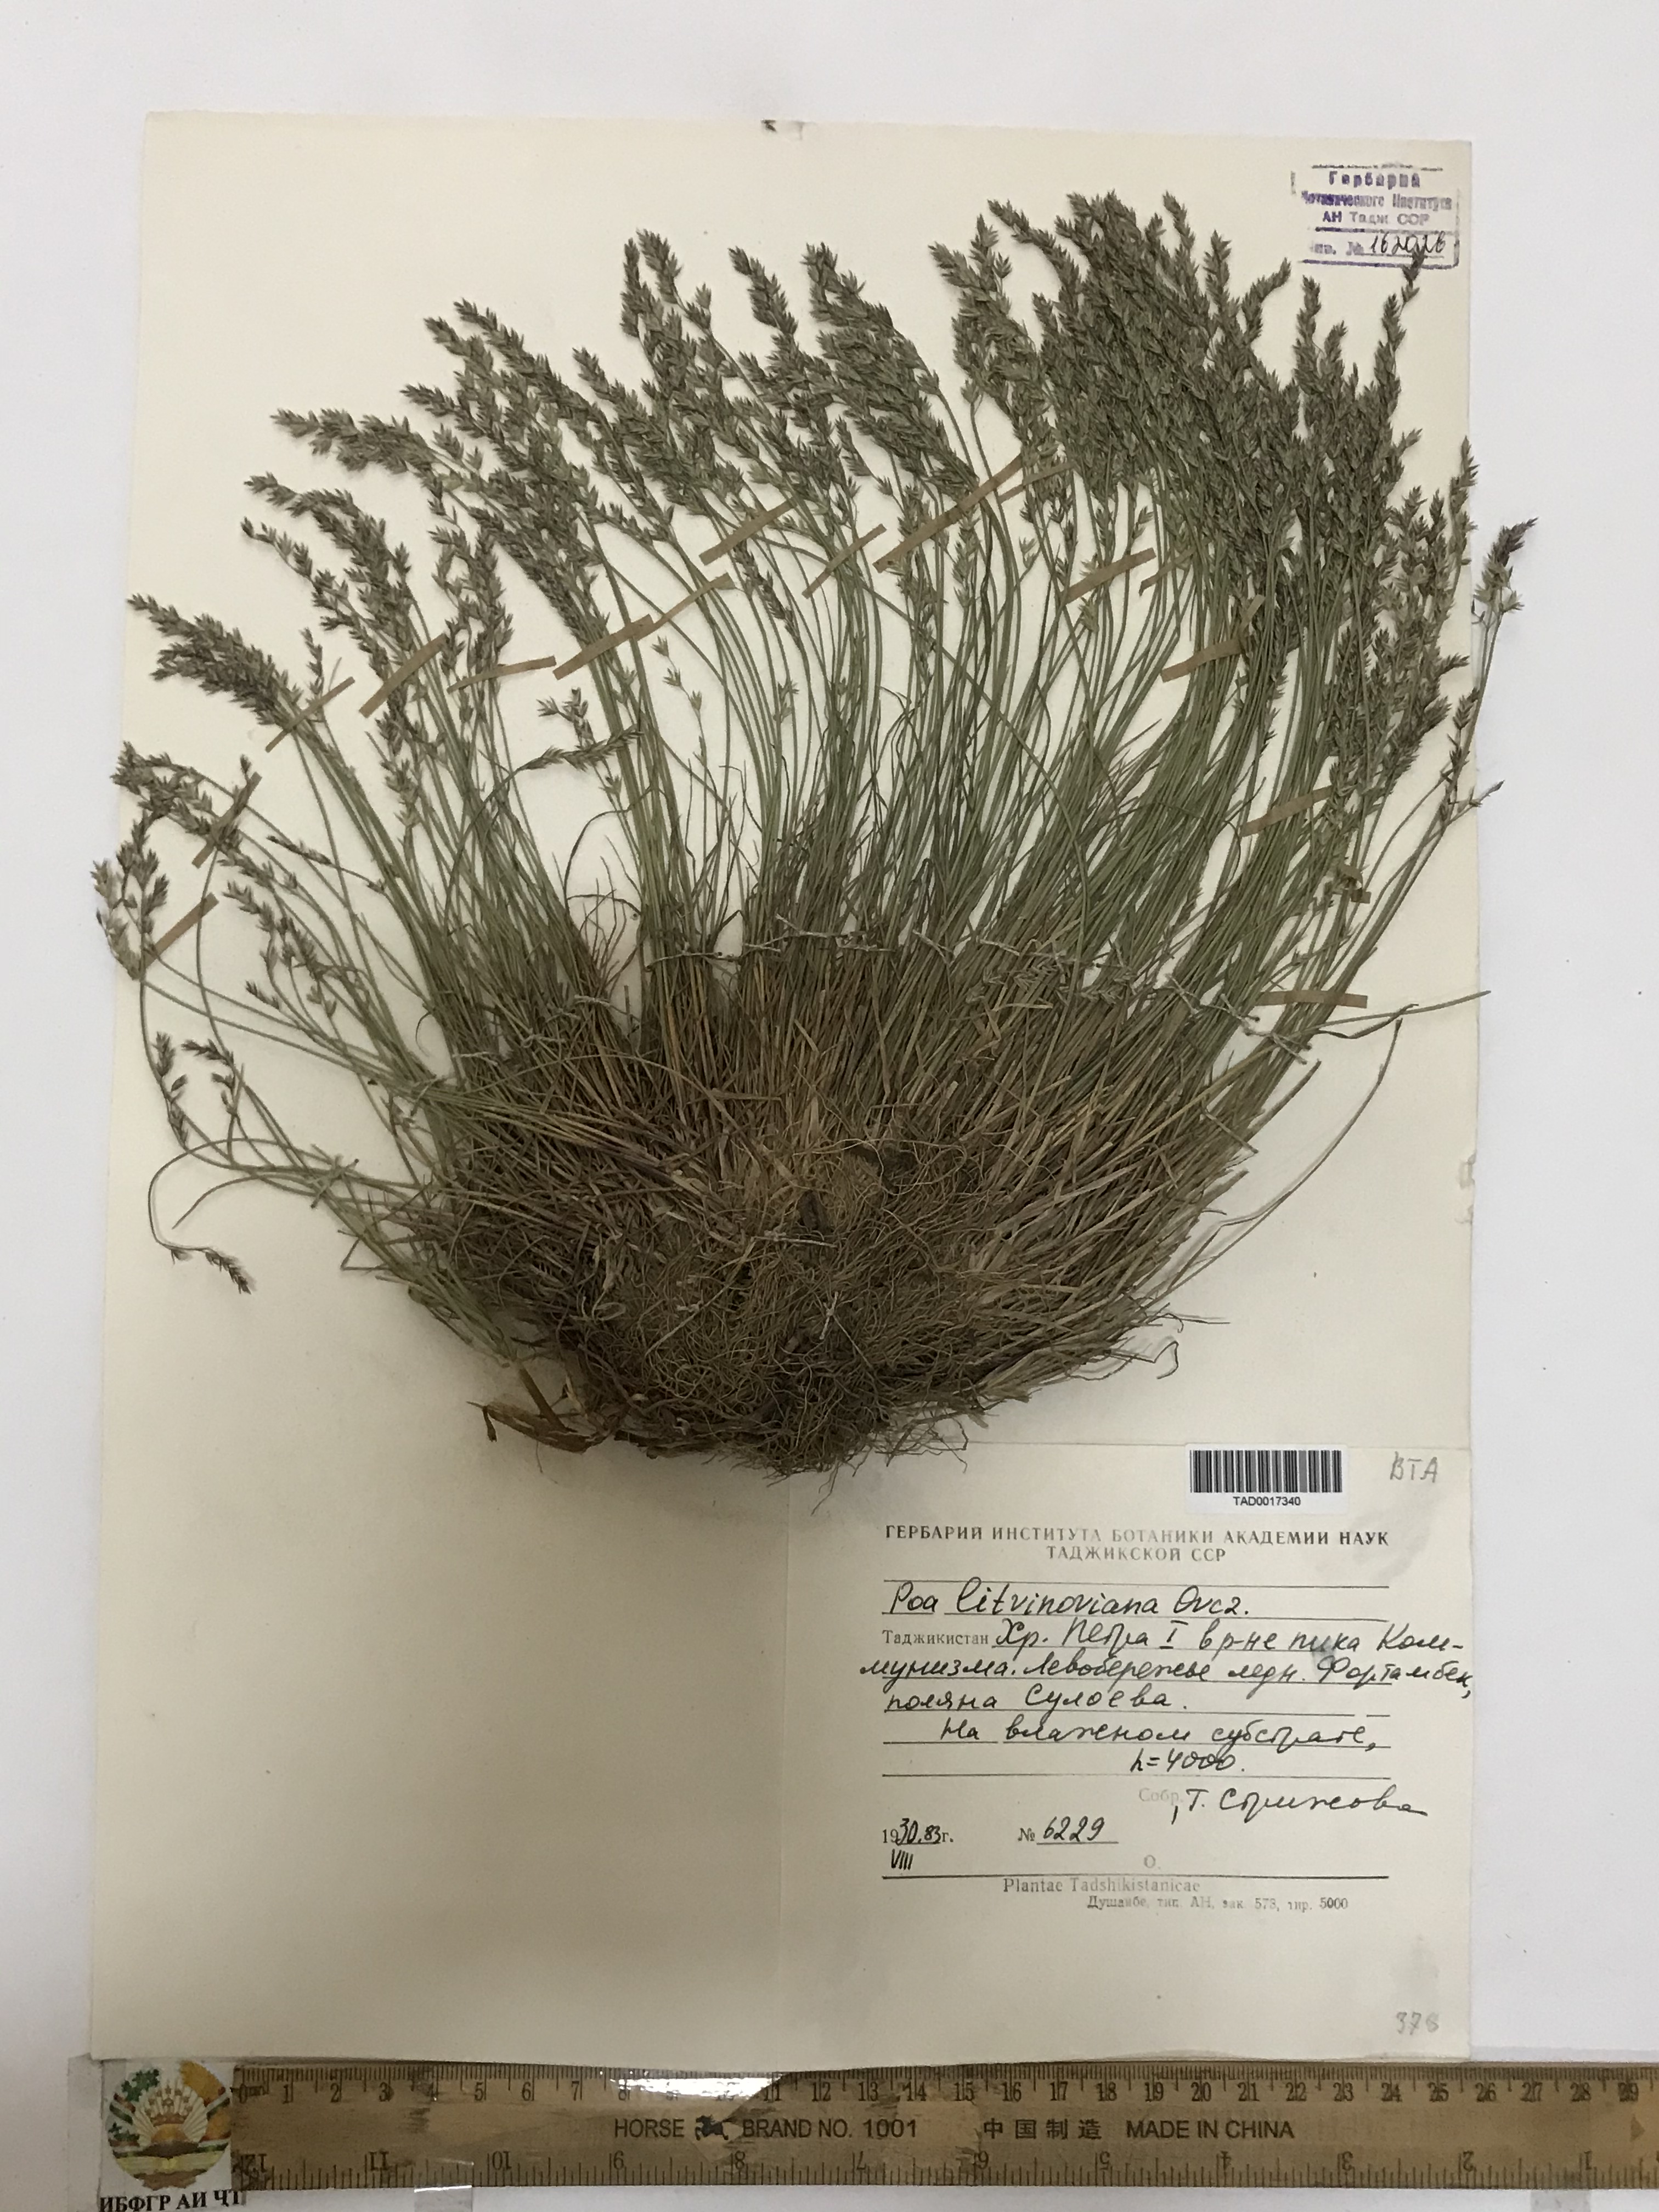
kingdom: Plantae
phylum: Tracheophyta
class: Liliopsida
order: Poales
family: Poaceae
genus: Poa
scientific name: Poa glauca
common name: Glaucous bluegrass
